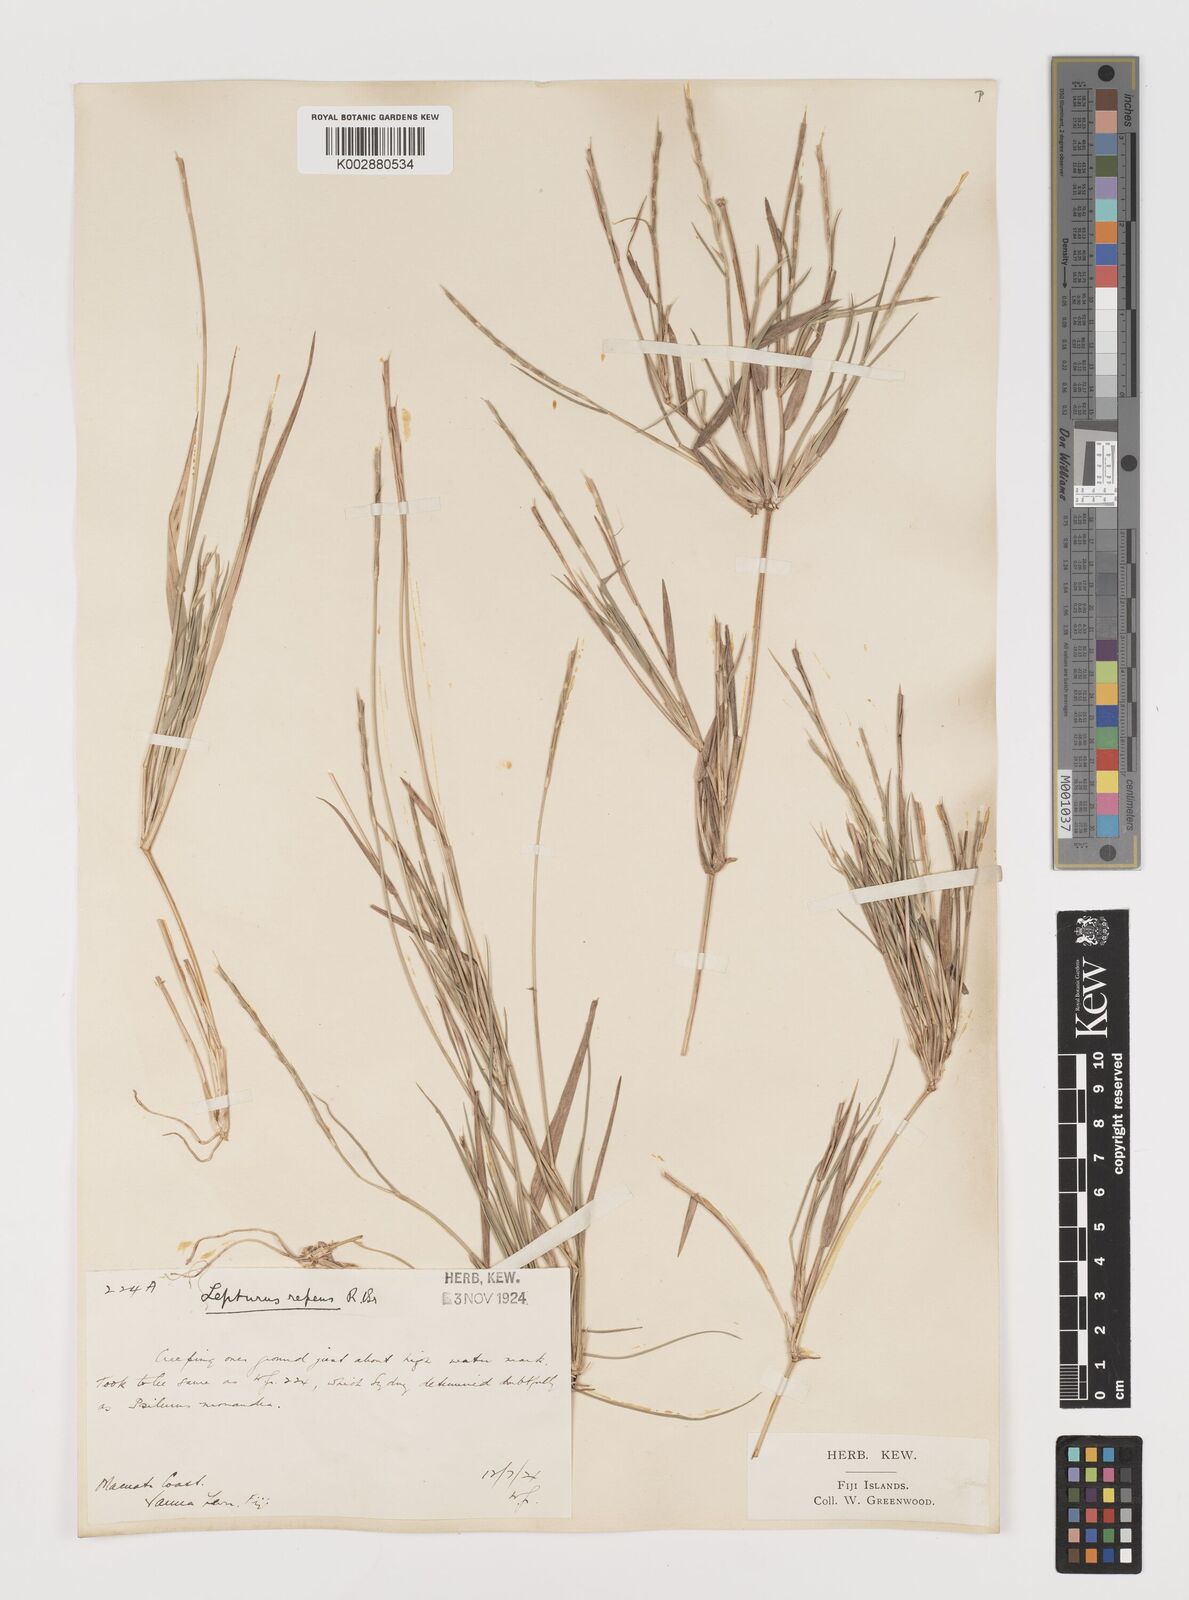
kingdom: Plantae
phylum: Tracheophyta
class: Liliopsida
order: Poales
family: Poaceae
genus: Lepturus
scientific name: Lepturus repens
